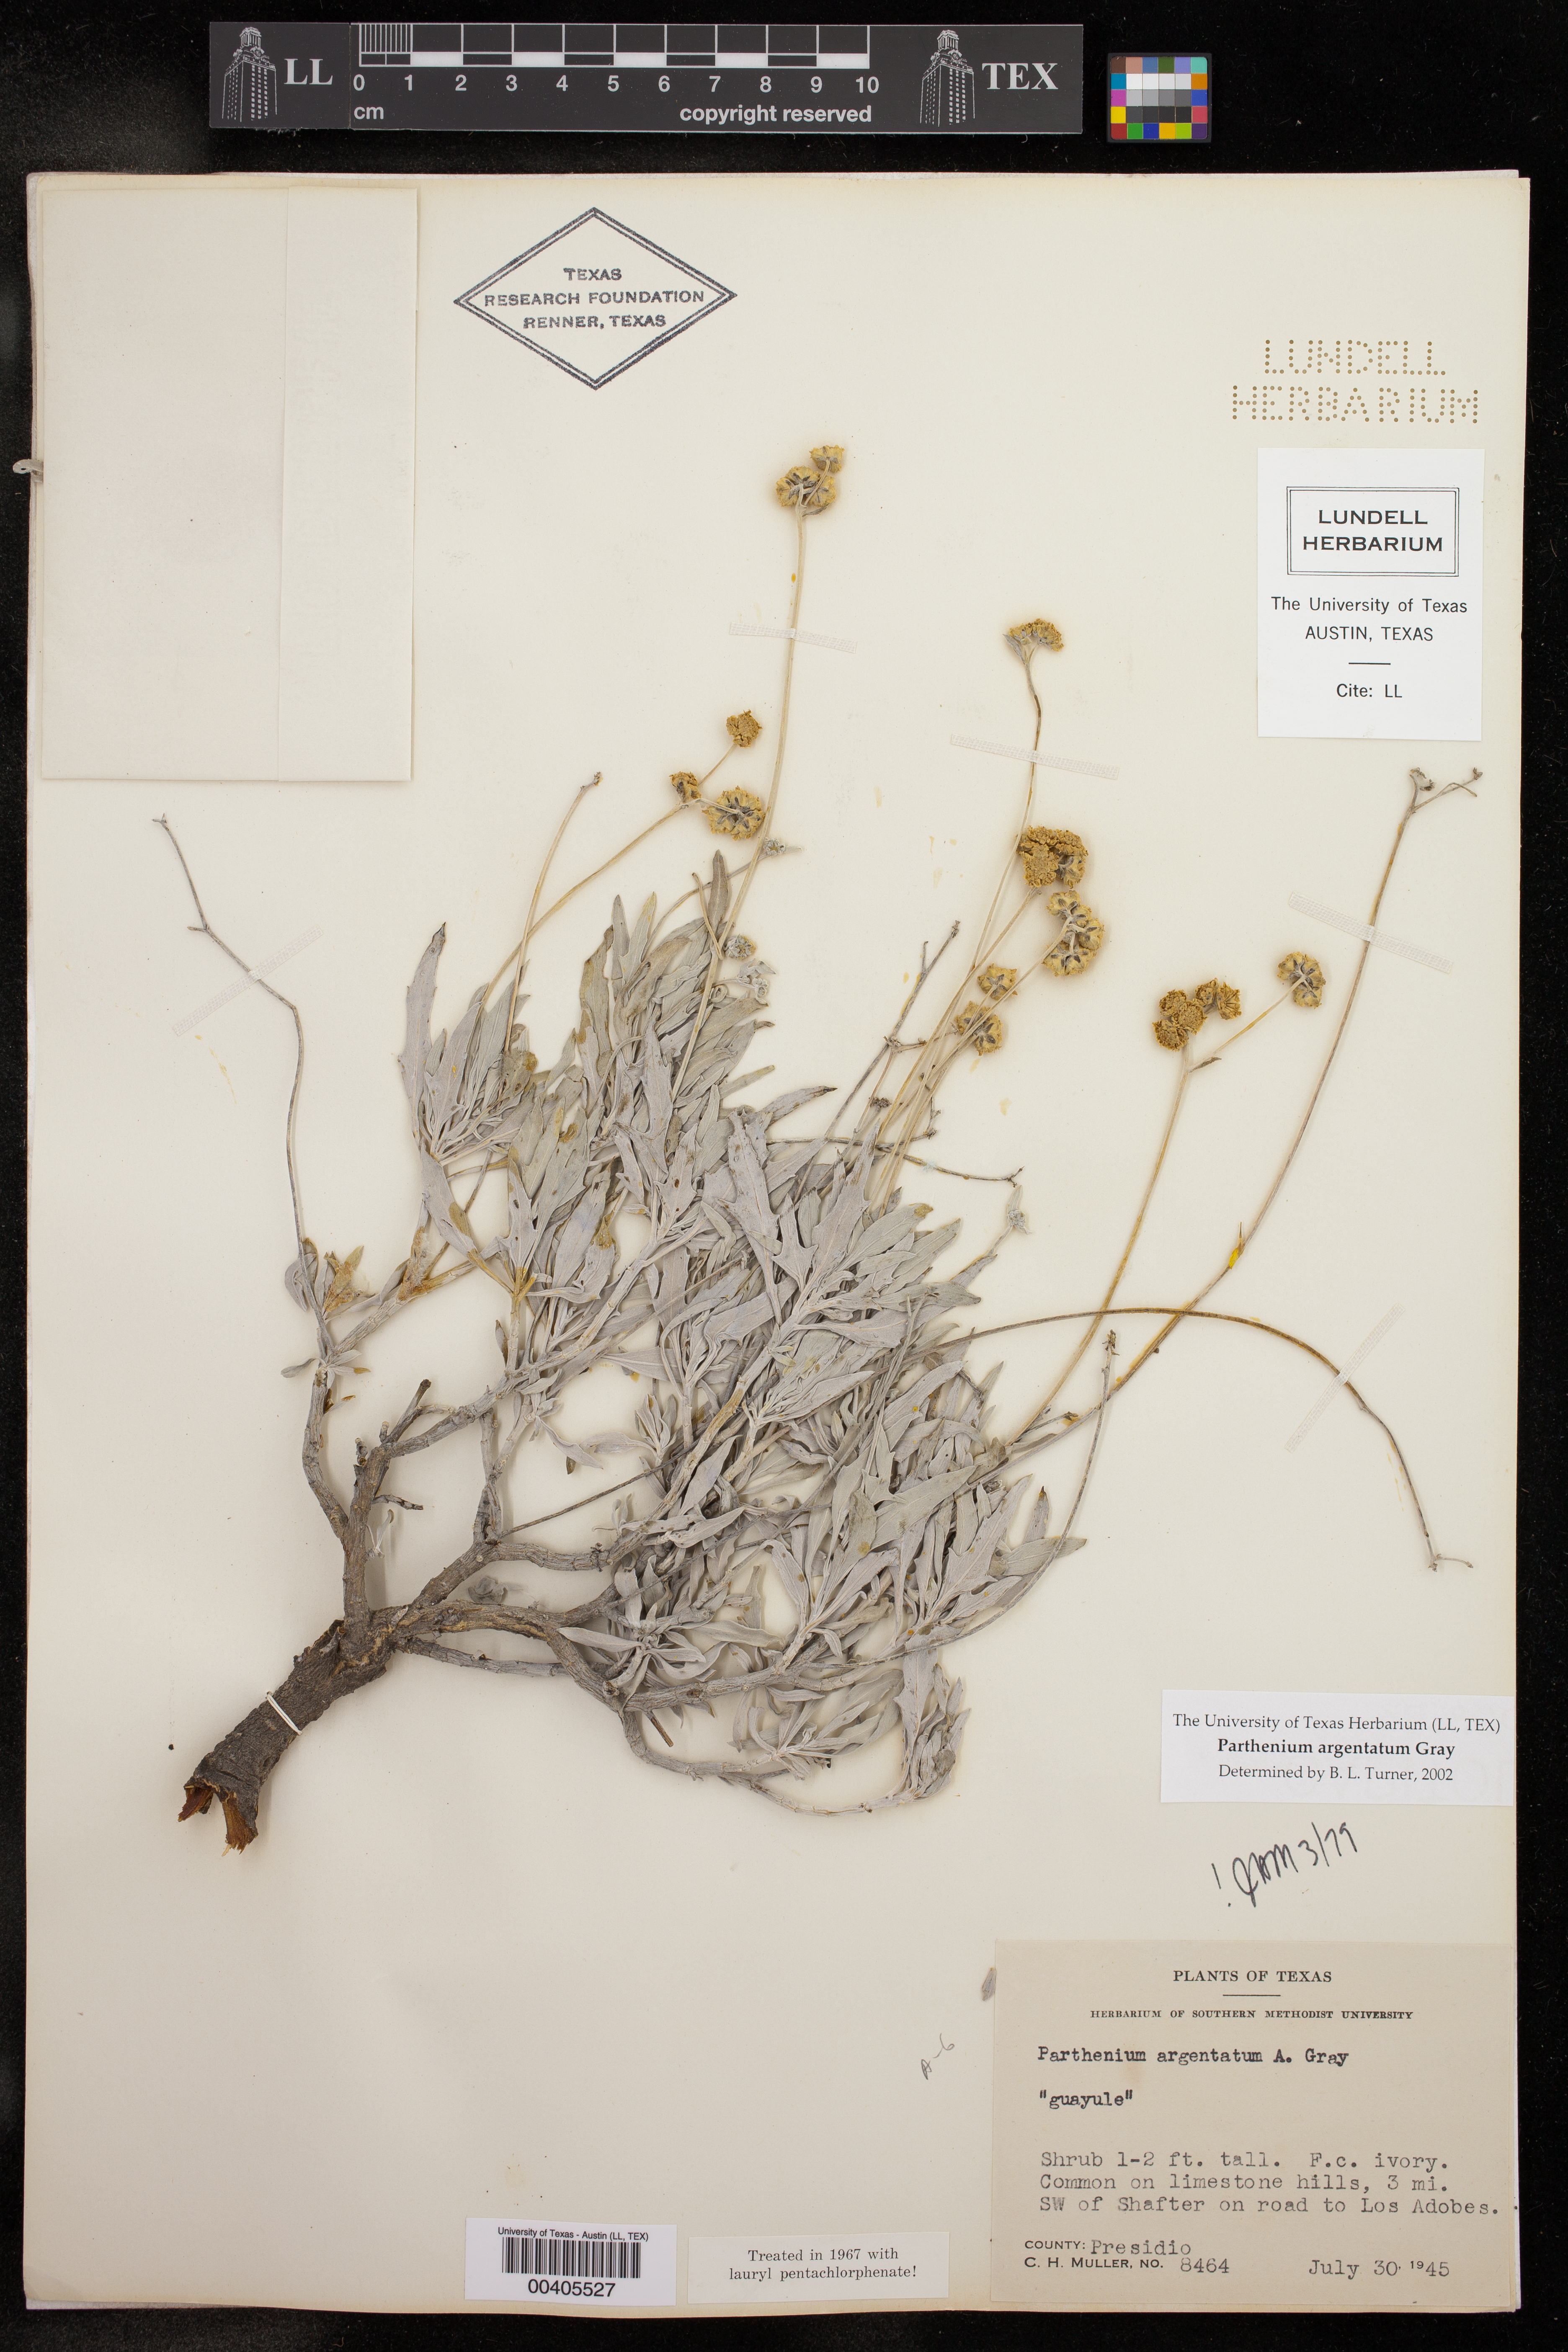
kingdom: Plantae
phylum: Tracheophyta
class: Magnoliopsida
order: Asterales
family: Asteraceae
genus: Parthenium
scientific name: Parthenium argentatum
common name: Guayule
